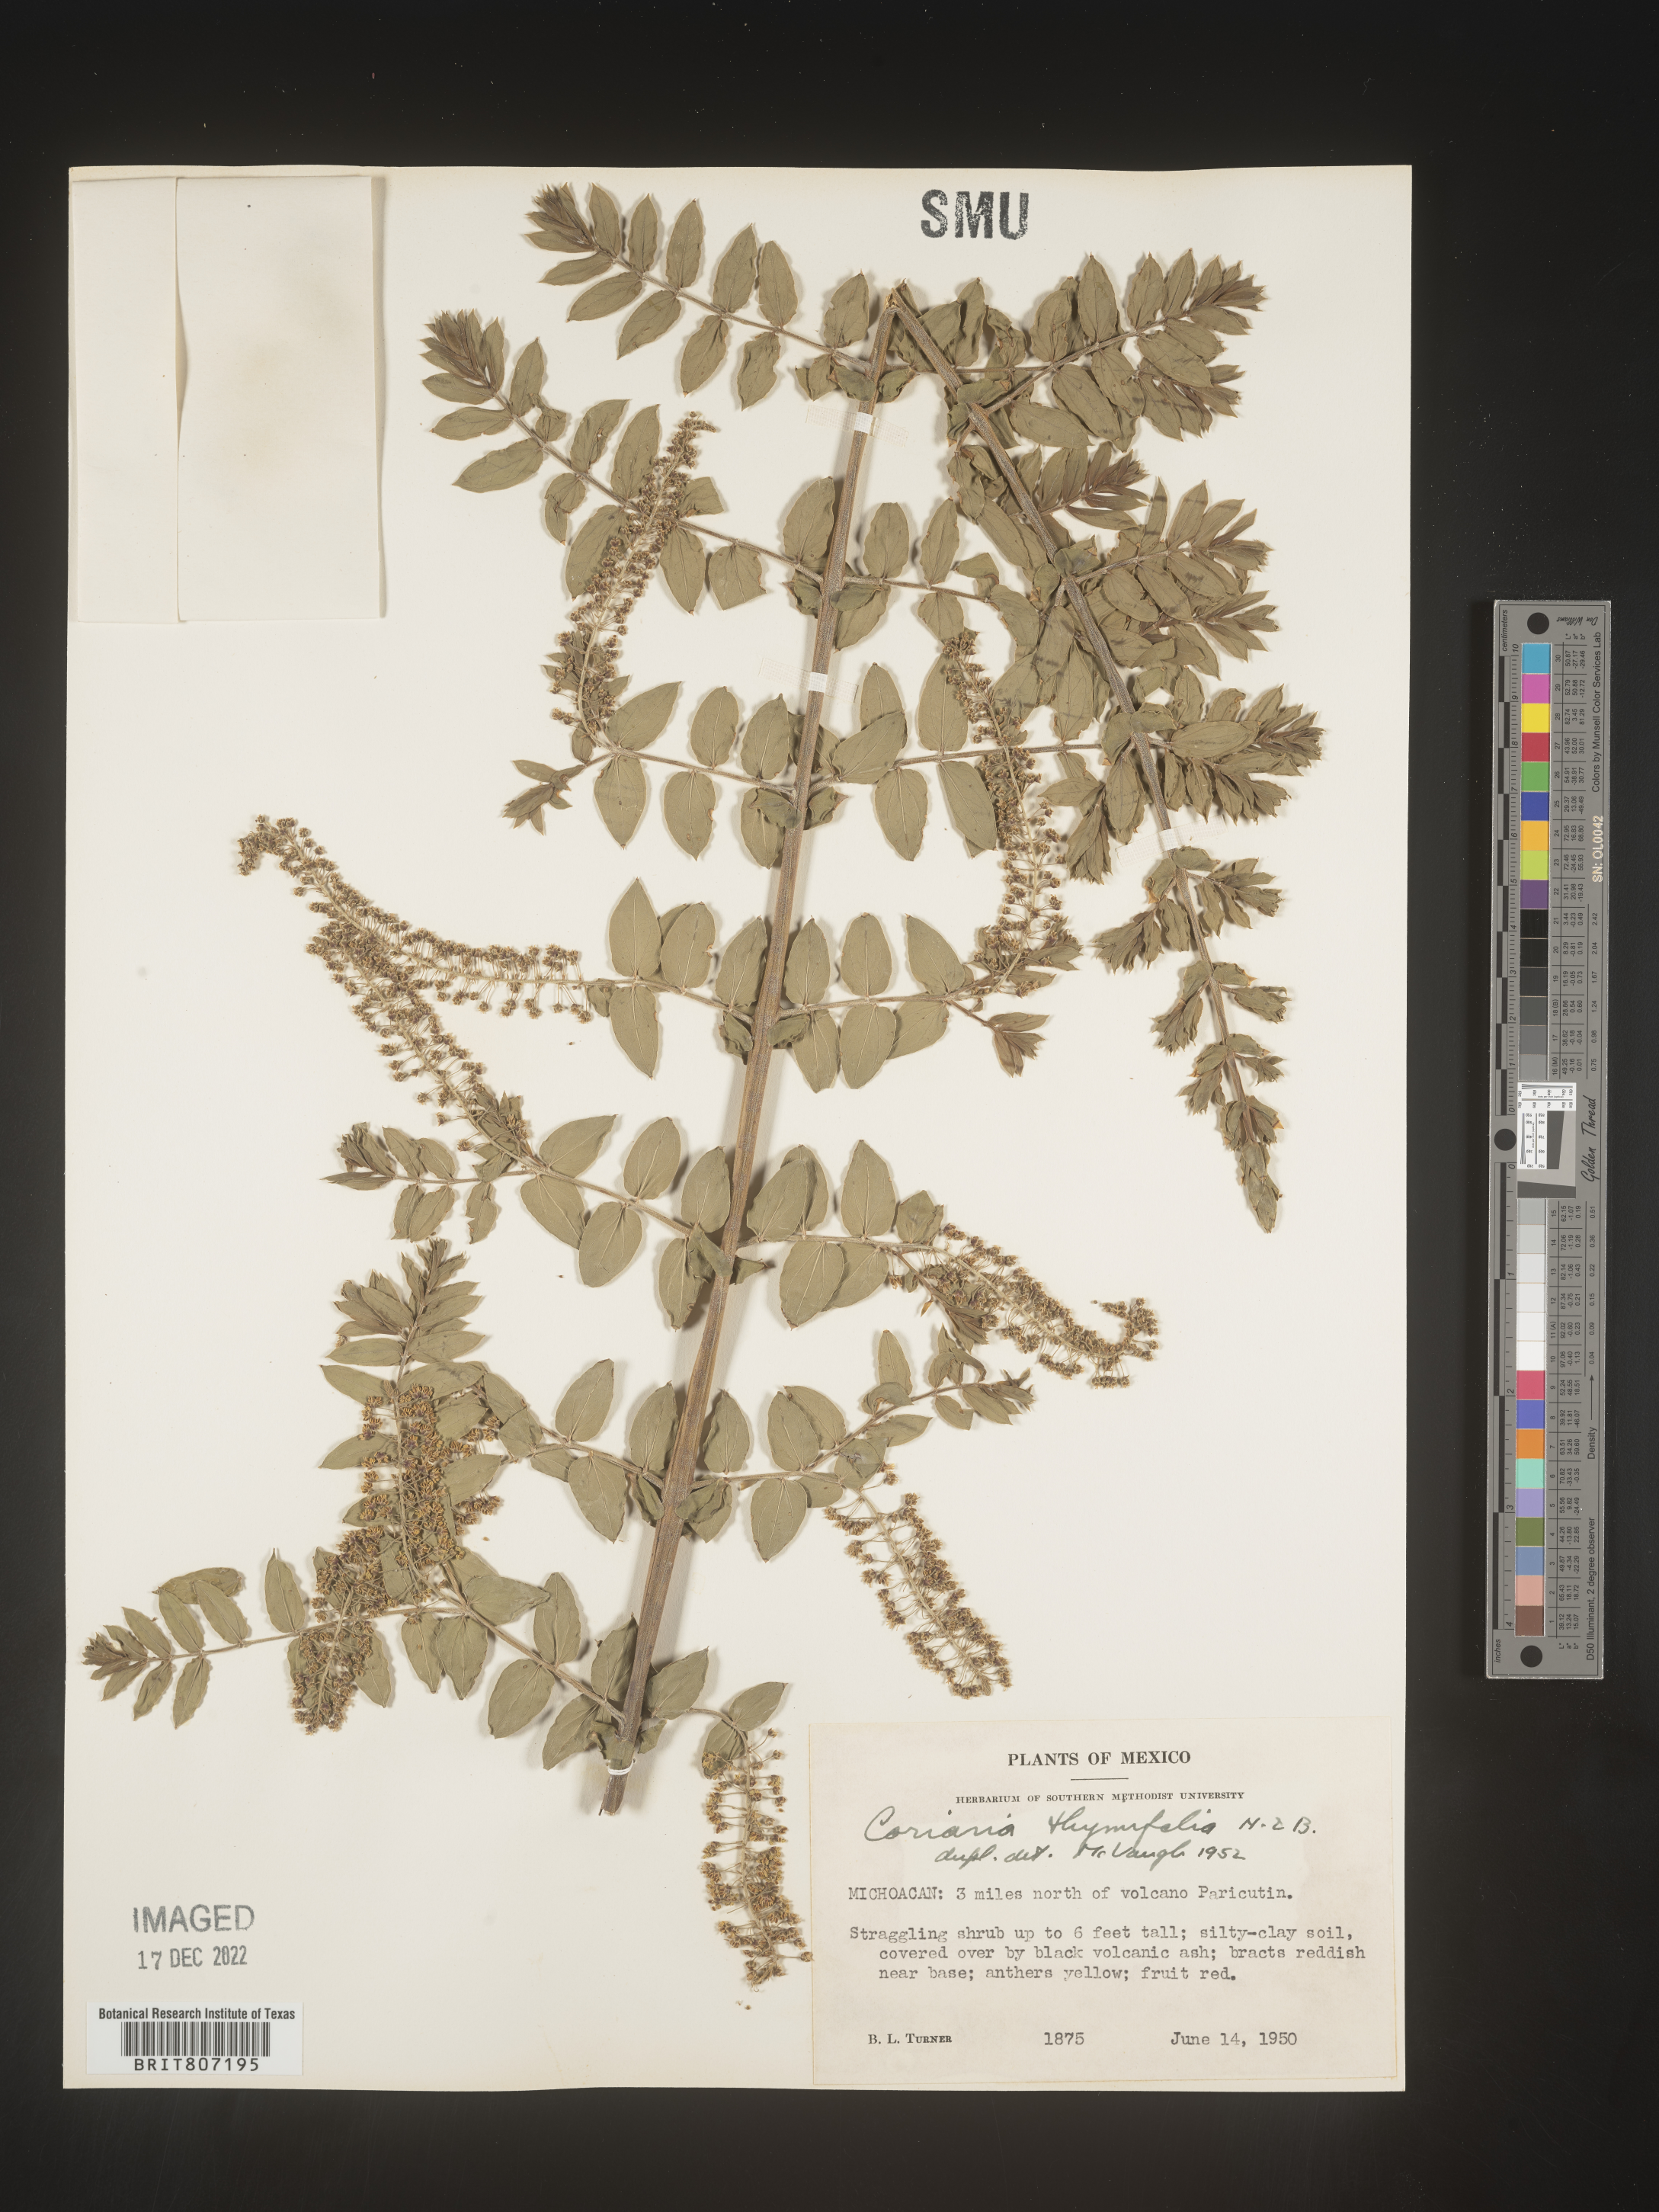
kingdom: Plantae
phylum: Tracheophyta
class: Magnoliopsida
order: Cucurbitales
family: Coriariaceae
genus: Coriaria
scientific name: Coriaria
